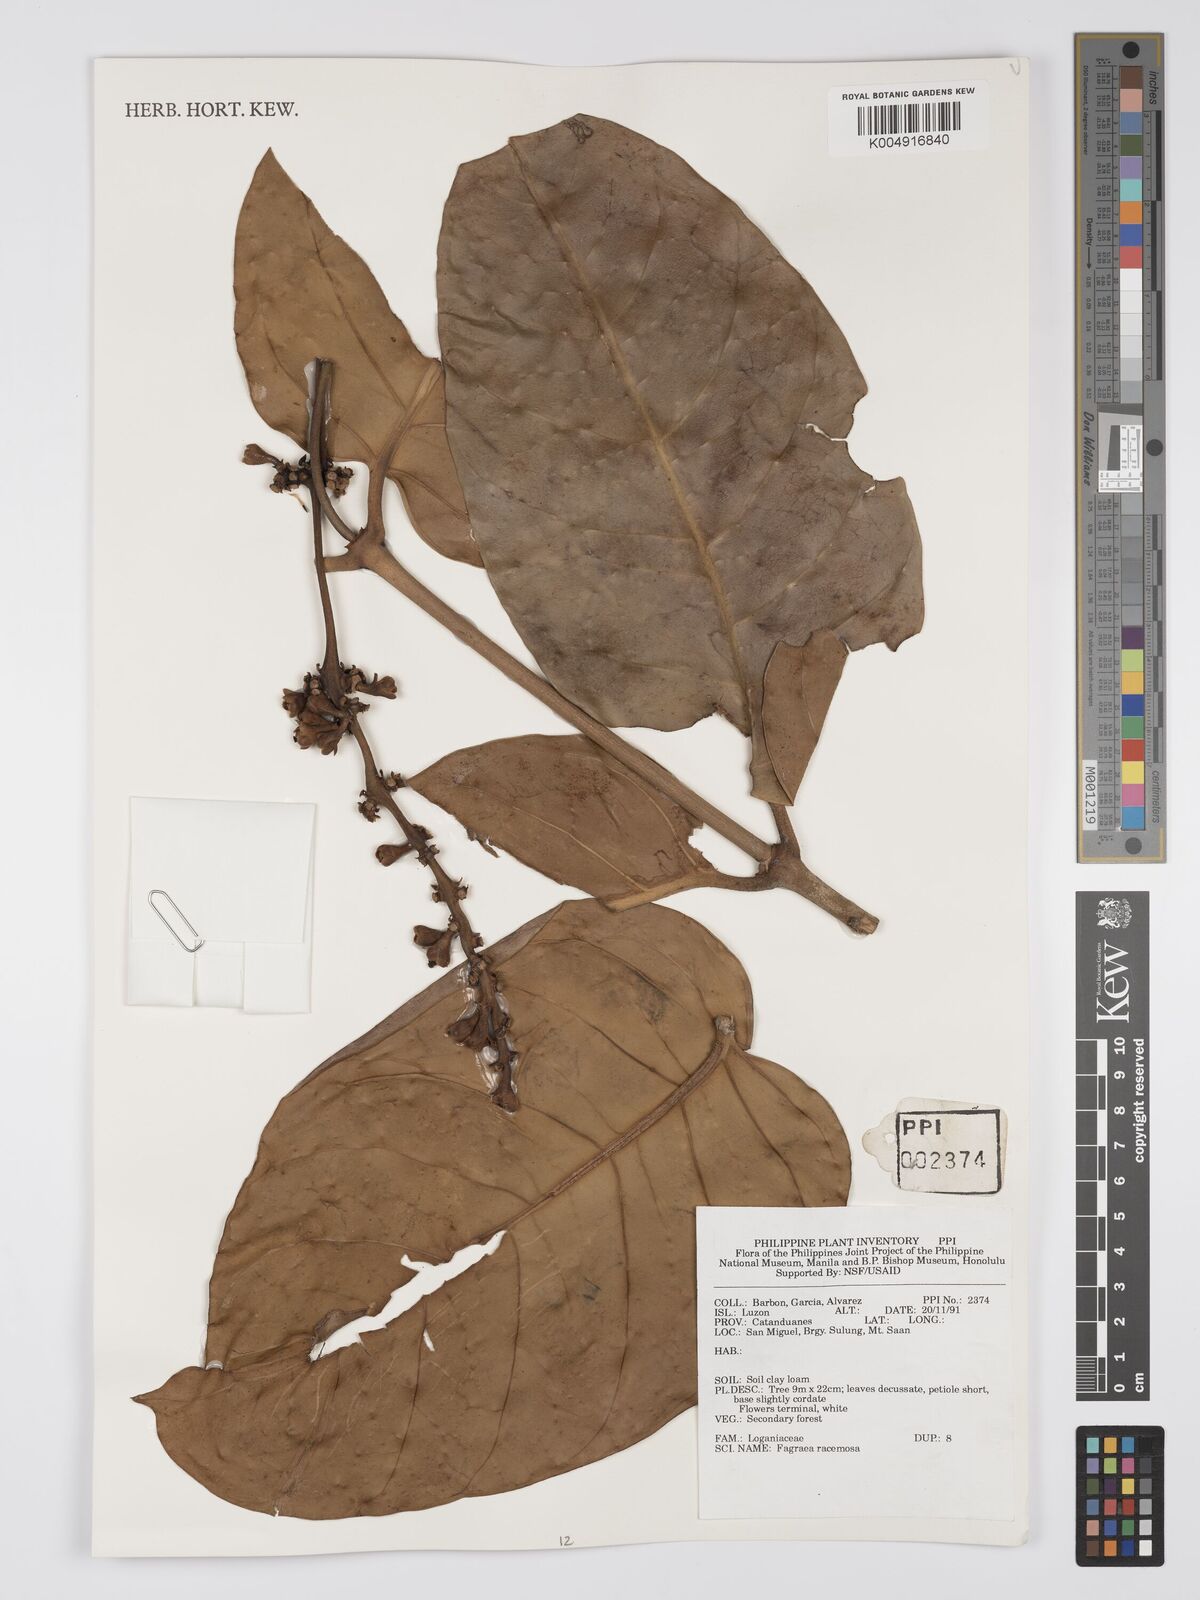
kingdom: Plantae
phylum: Tracheophyta
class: Magnoliopsida
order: Gentianales
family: Gentianaceae
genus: Utania
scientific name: Utania racemosa
